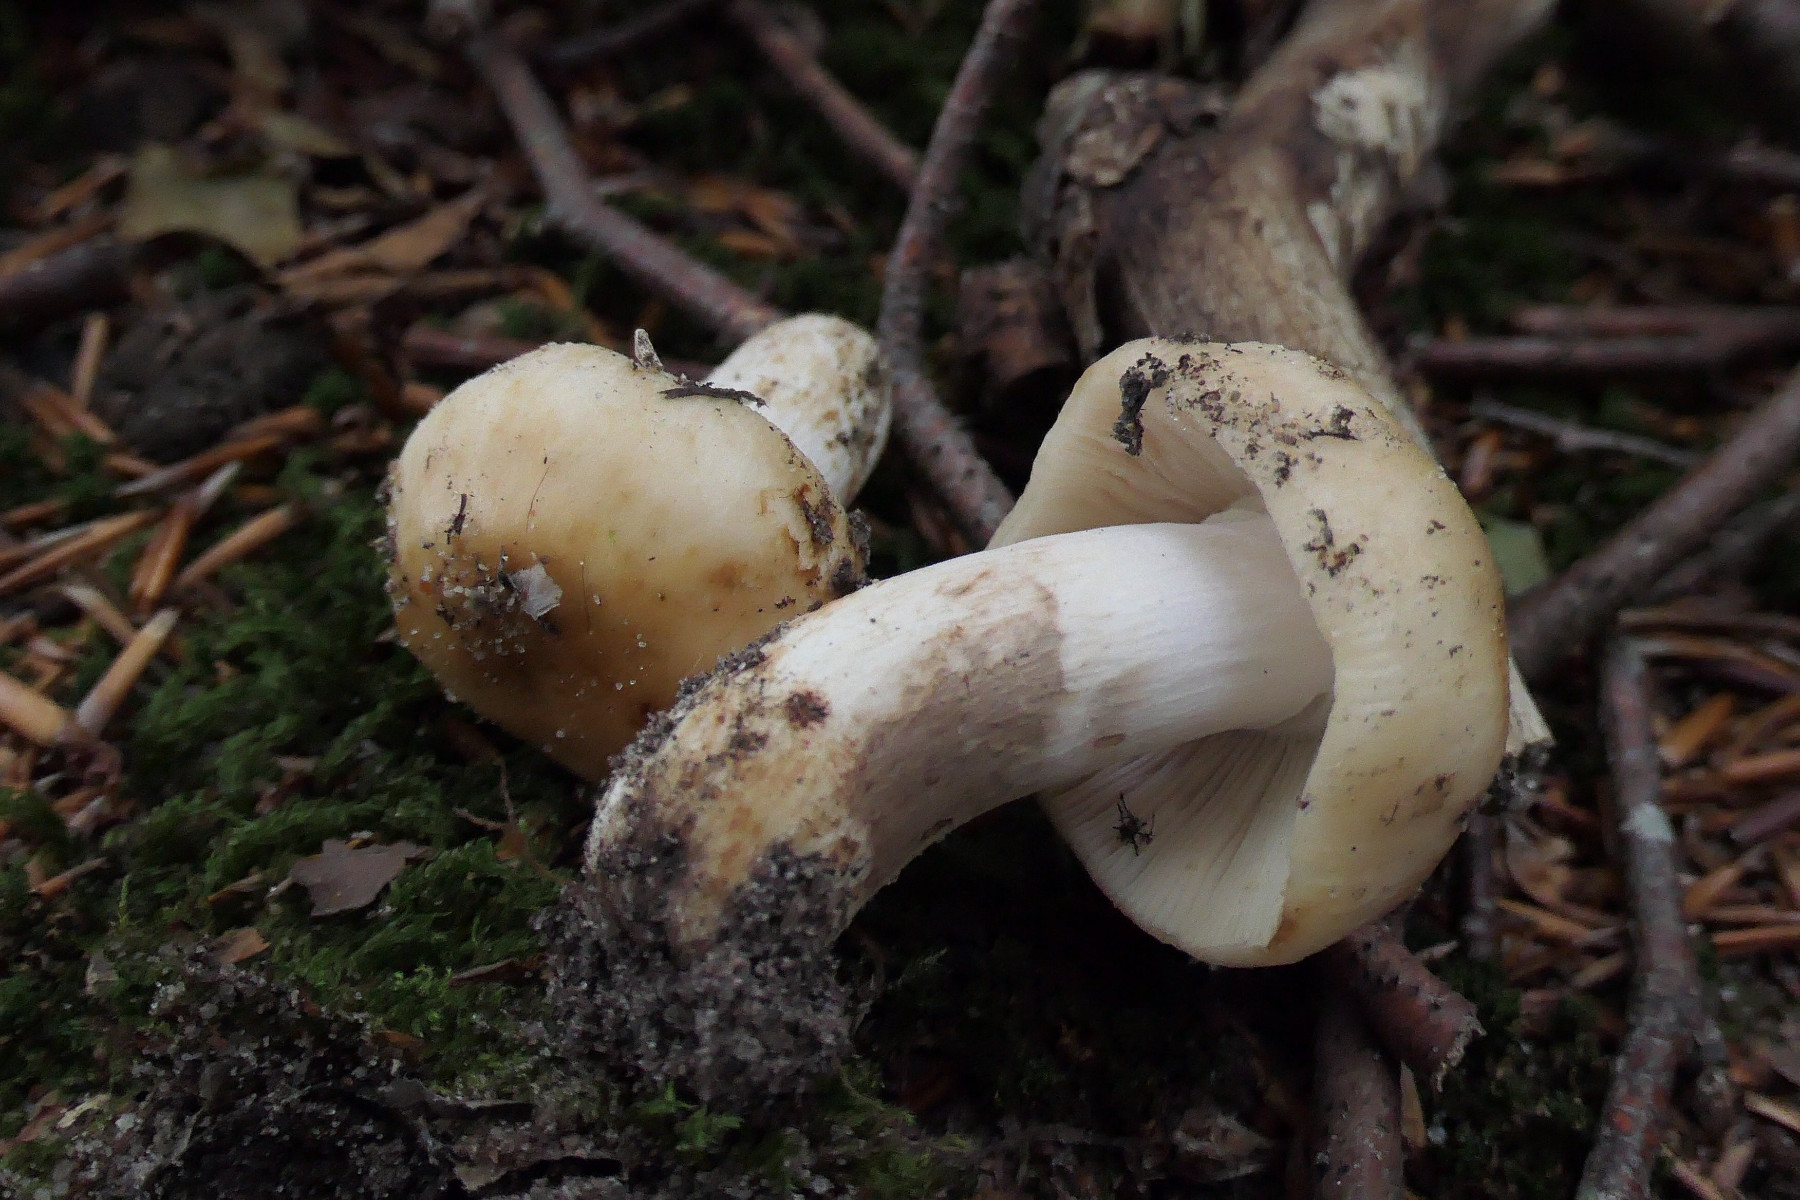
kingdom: Fungi
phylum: Basidiomycota
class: Agaricomycetes
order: Russulales
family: Russulaceae
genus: Russula
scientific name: Russula grata
